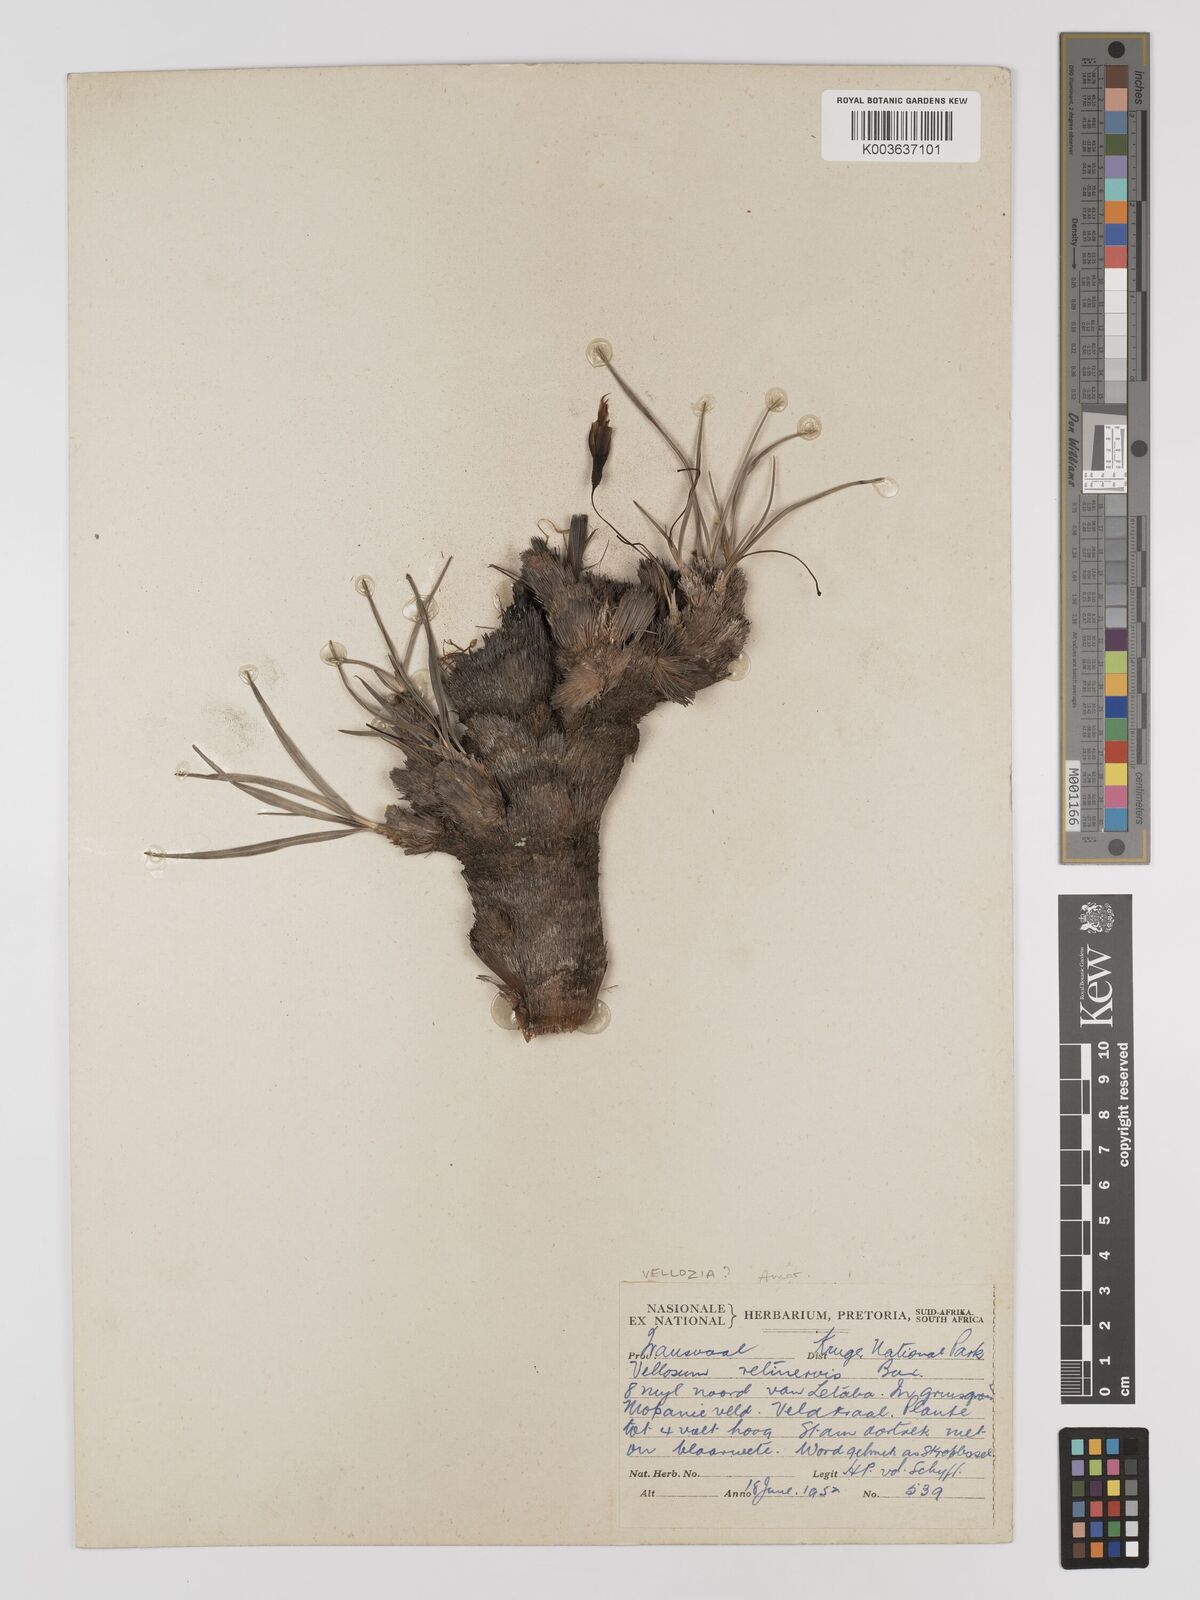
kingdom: Plantae
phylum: Tracheophyta
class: Liliopsida
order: Pandanales
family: Velloziaceae
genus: Xerophyta
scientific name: Xerophyta retinervis
